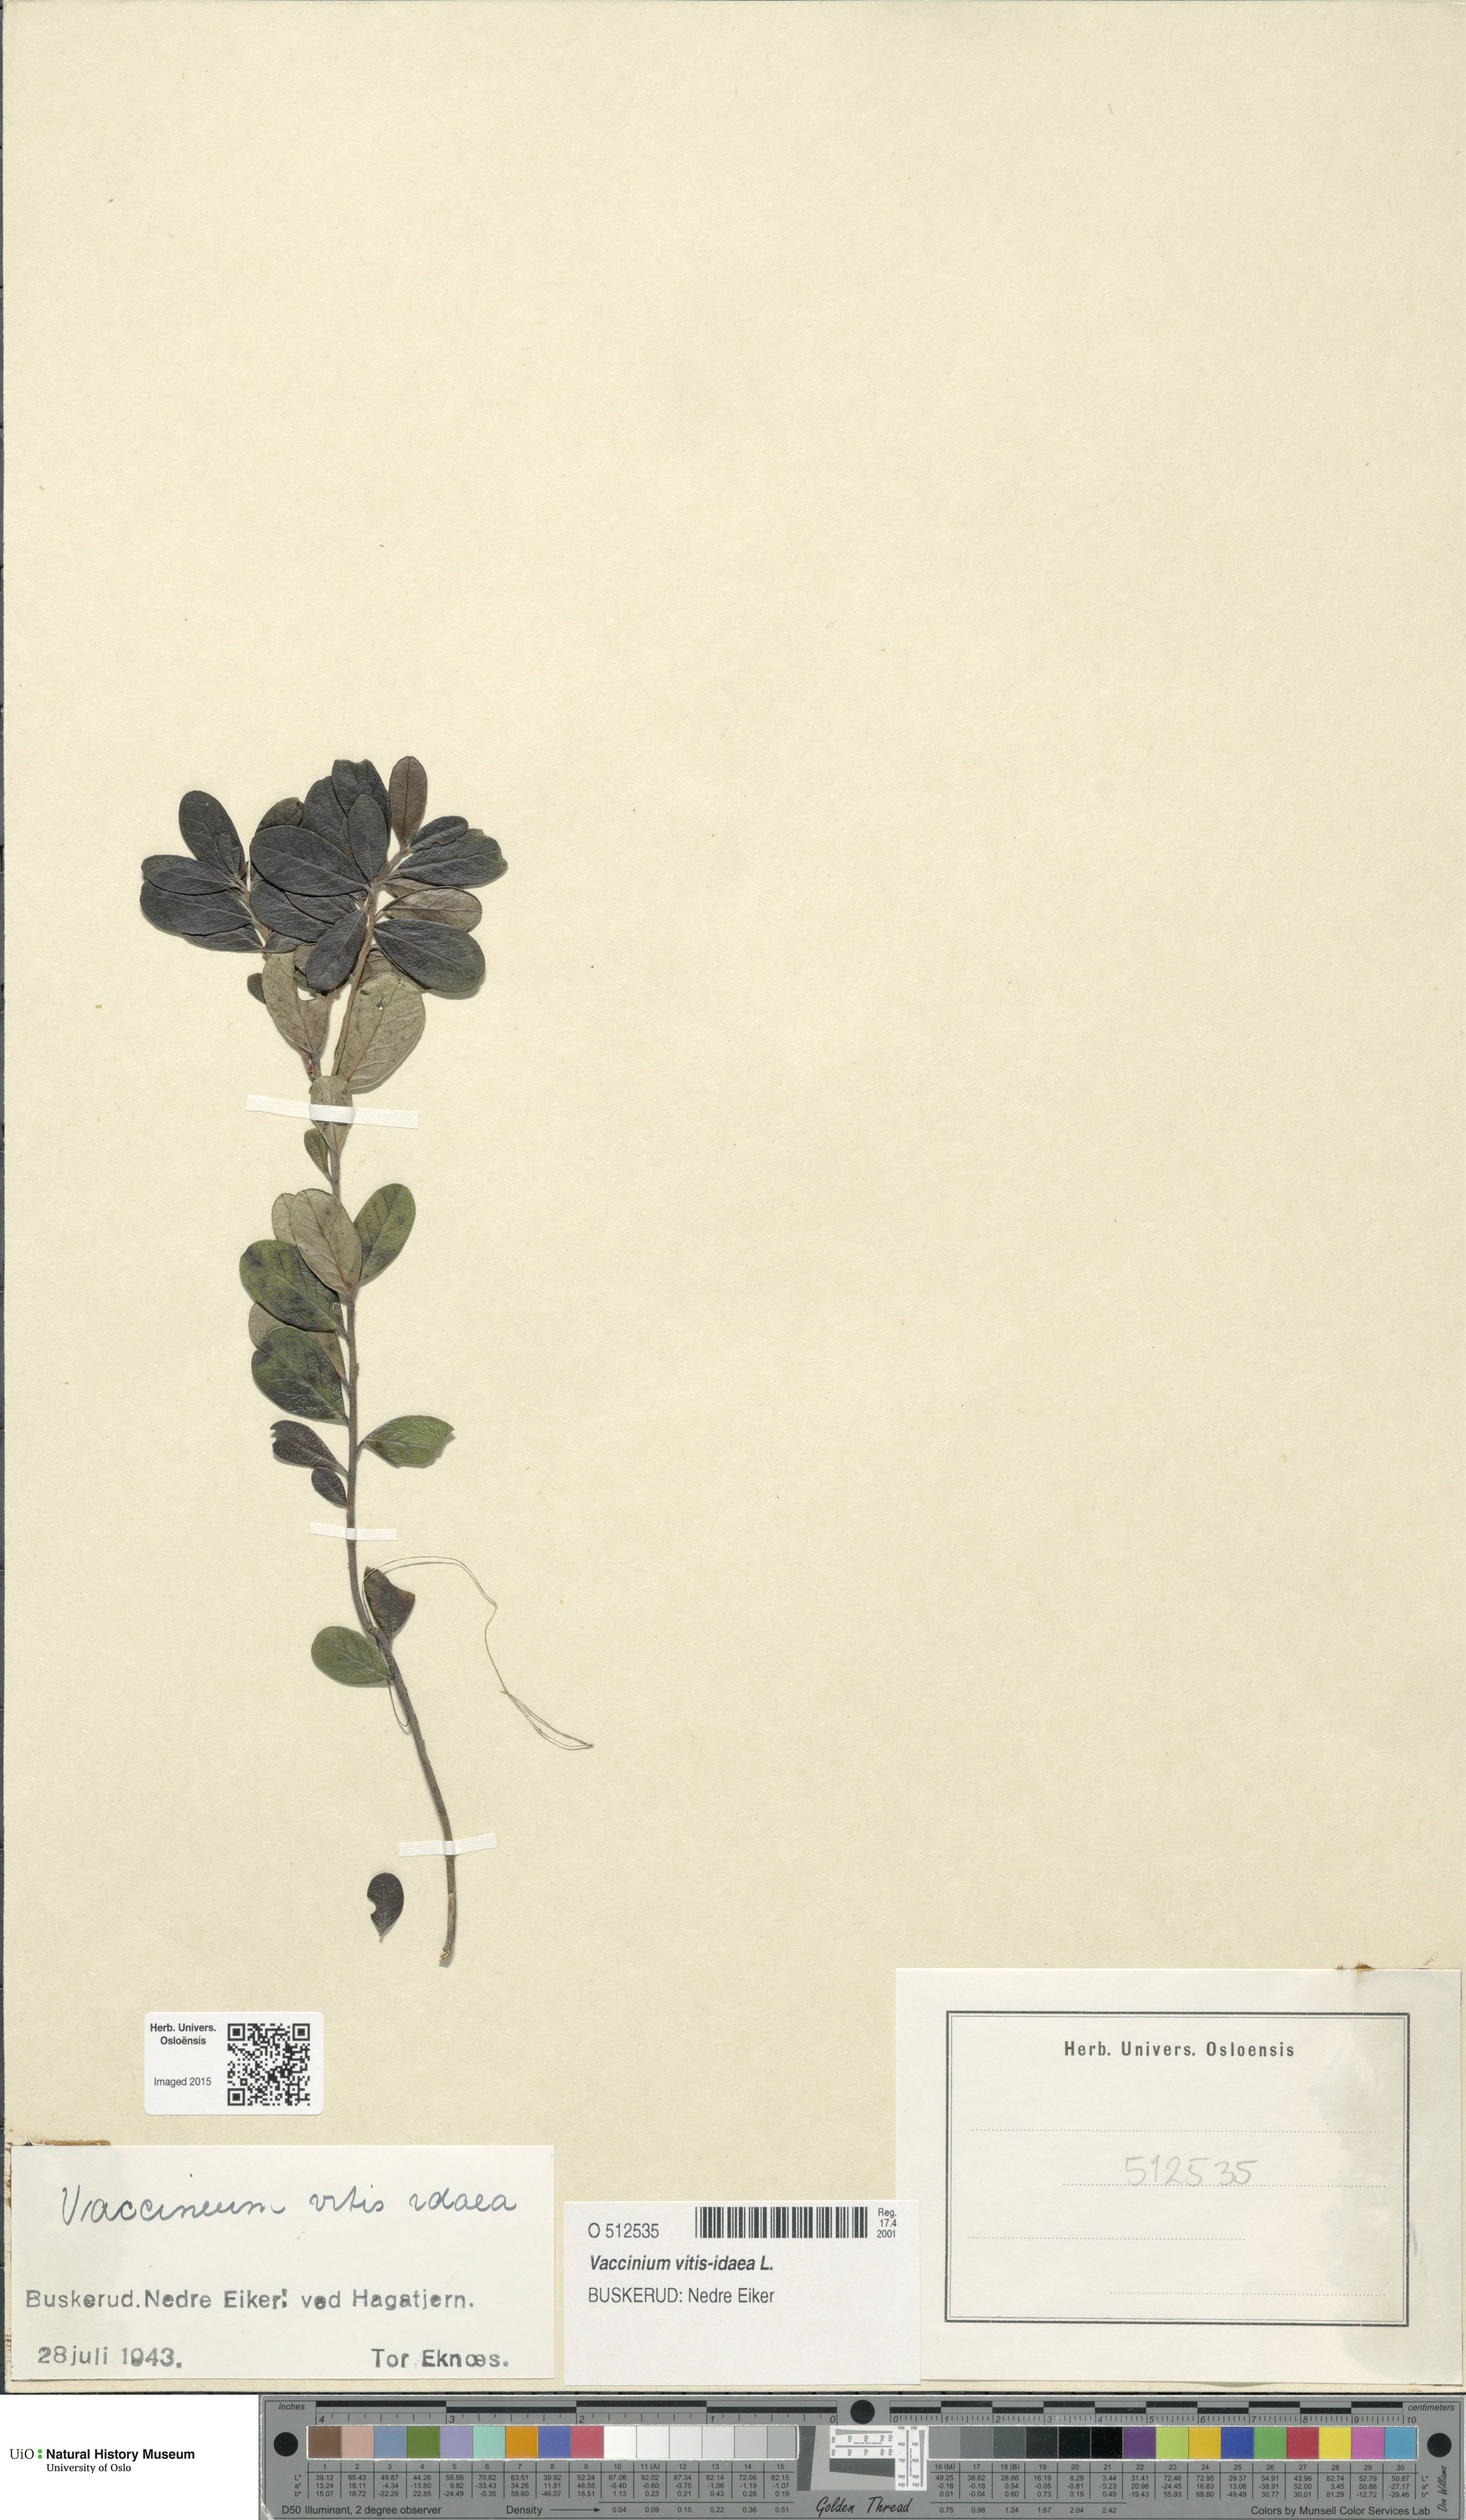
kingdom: Plantae
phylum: Tracheophyta
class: Magnoliopsida
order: Ericales
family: Ericaceae
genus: Vaccinium
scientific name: Vaccinium vitis-idaea
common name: Cowberry
